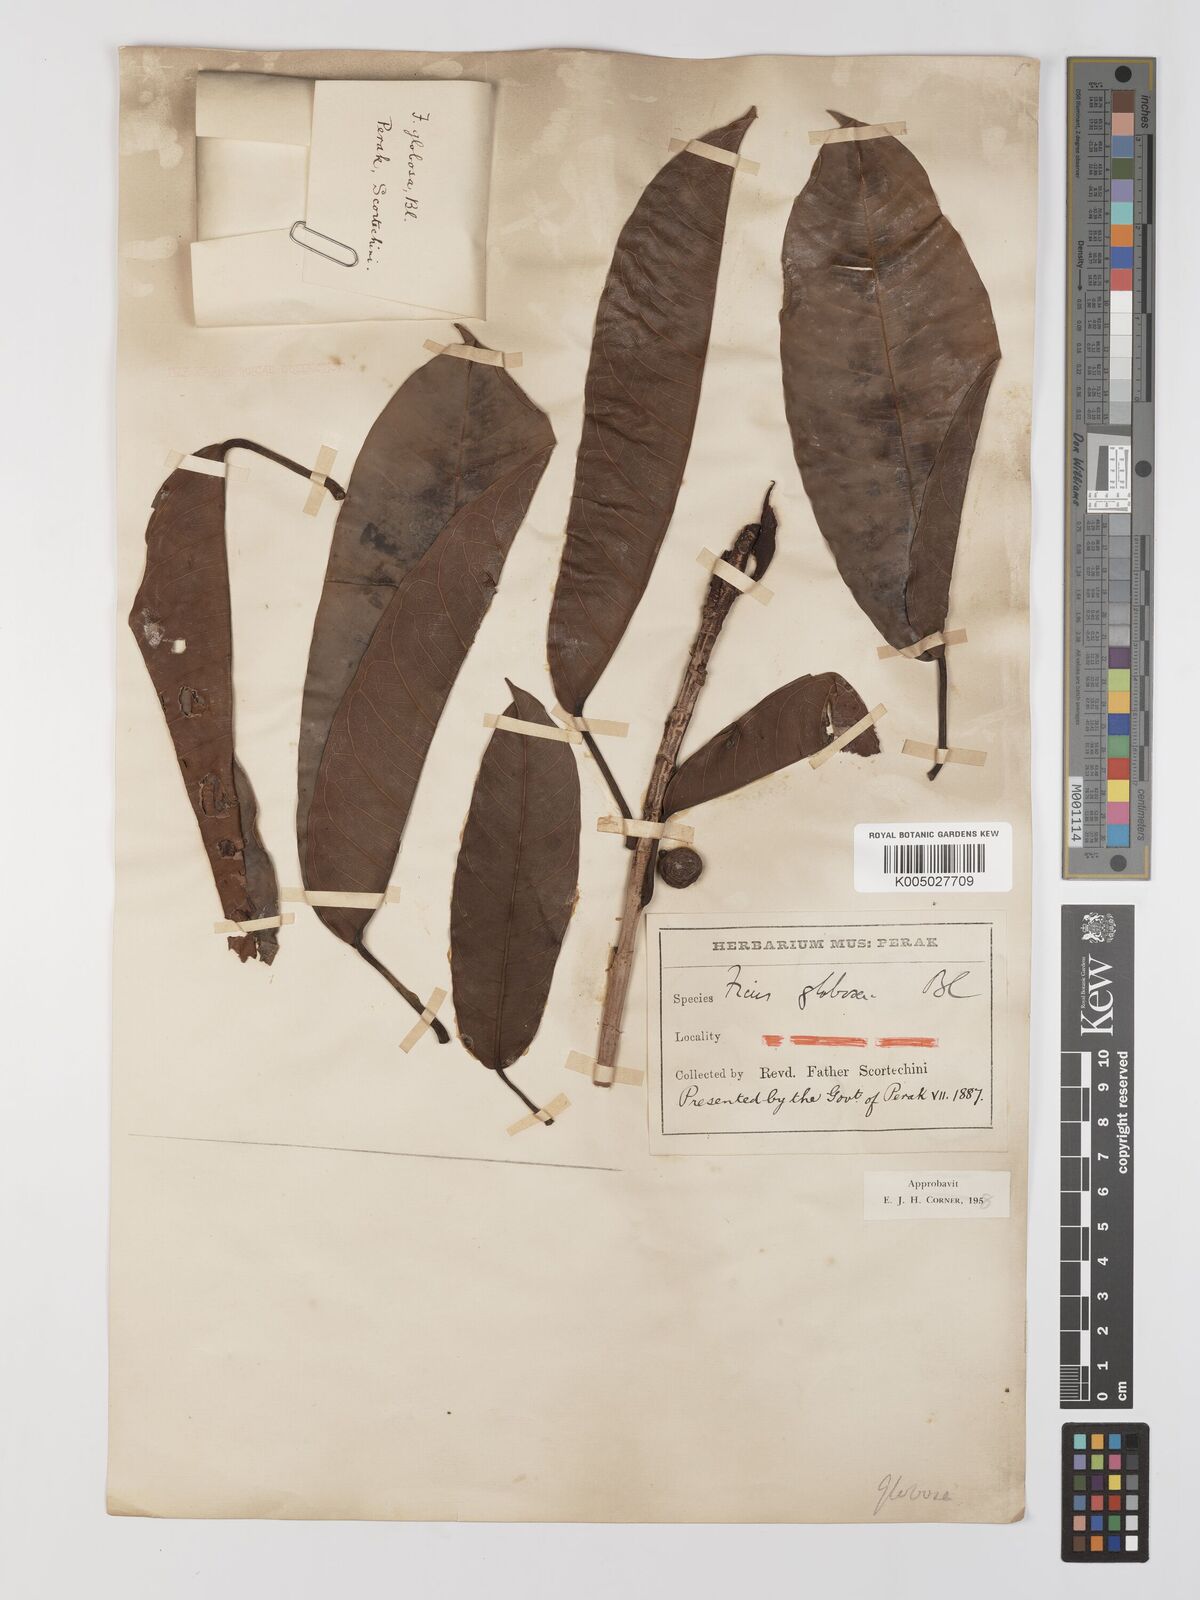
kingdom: Plantae
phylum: Tracheophyta
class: Magnoliopsida
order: Rosales
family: Moraceae
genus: Ficus
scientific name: Ficus
